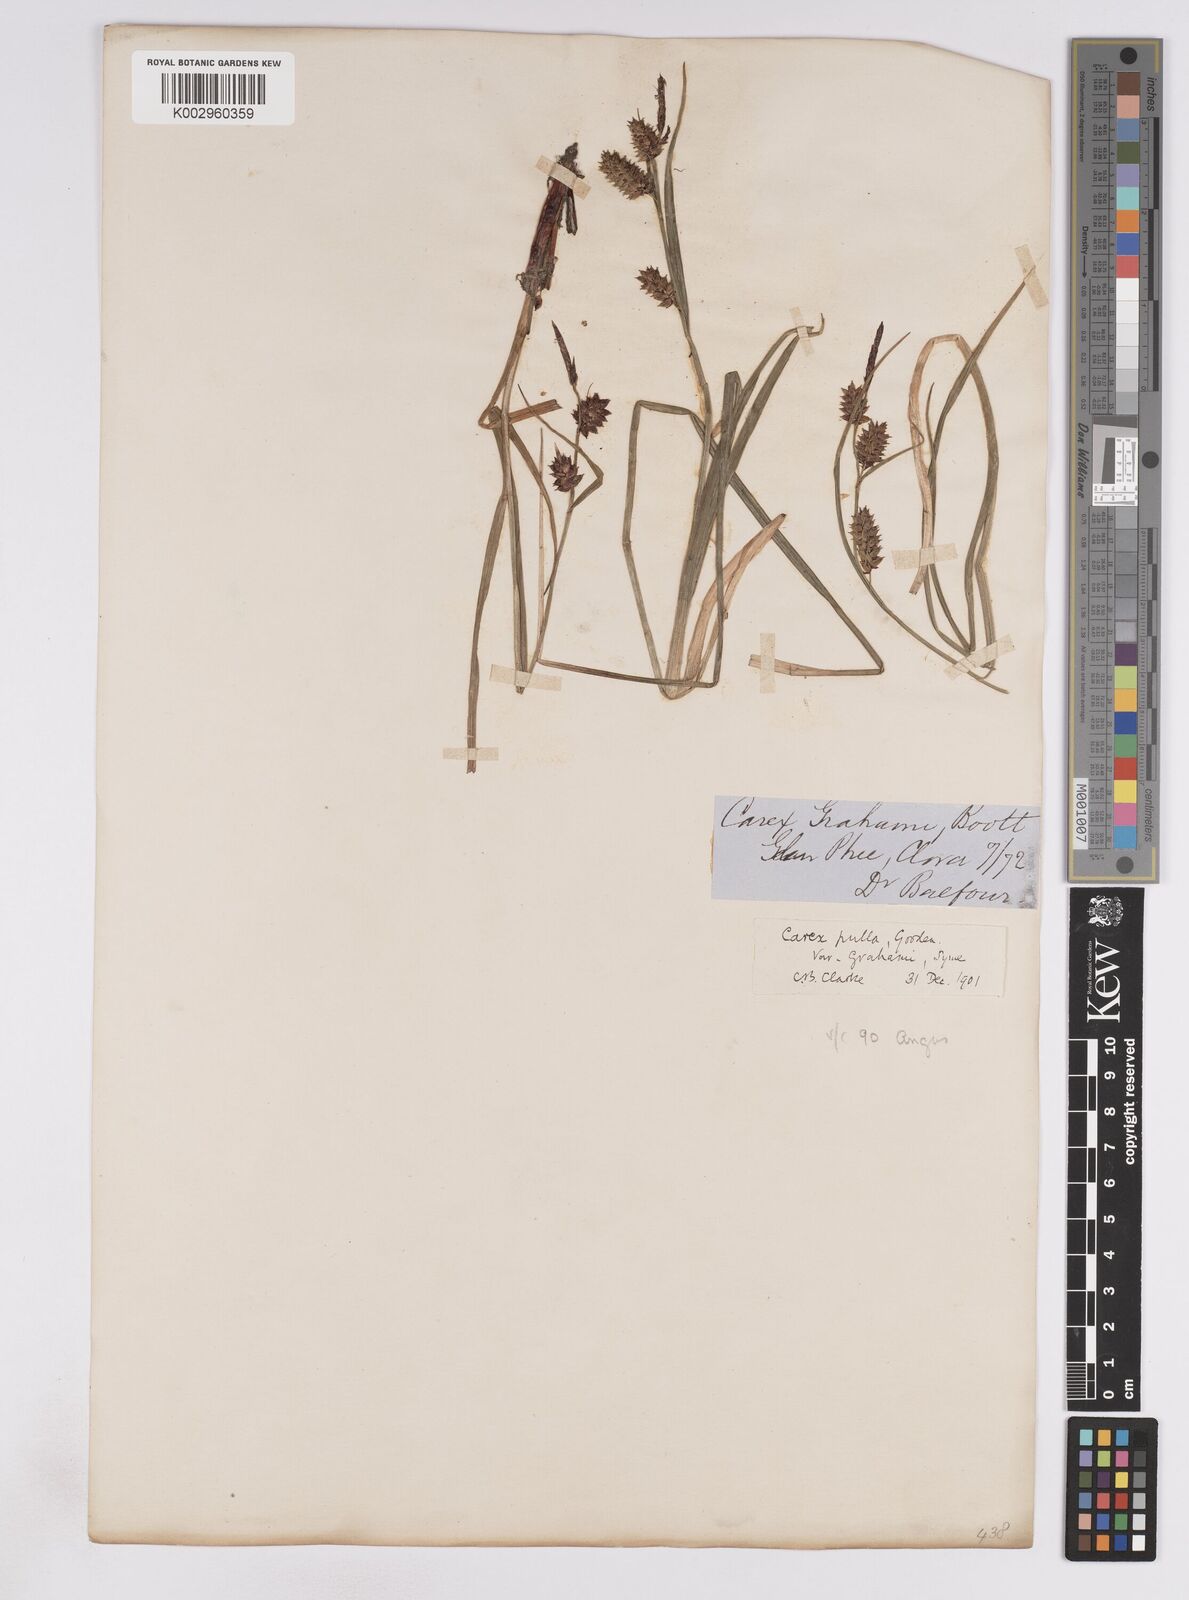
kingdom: Plantae
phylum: Tracheophyta
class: Liliopsida
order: Poales
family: Cyperaceae
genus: Carex
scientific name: Carex vesicaria
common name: Bladder-sedge
